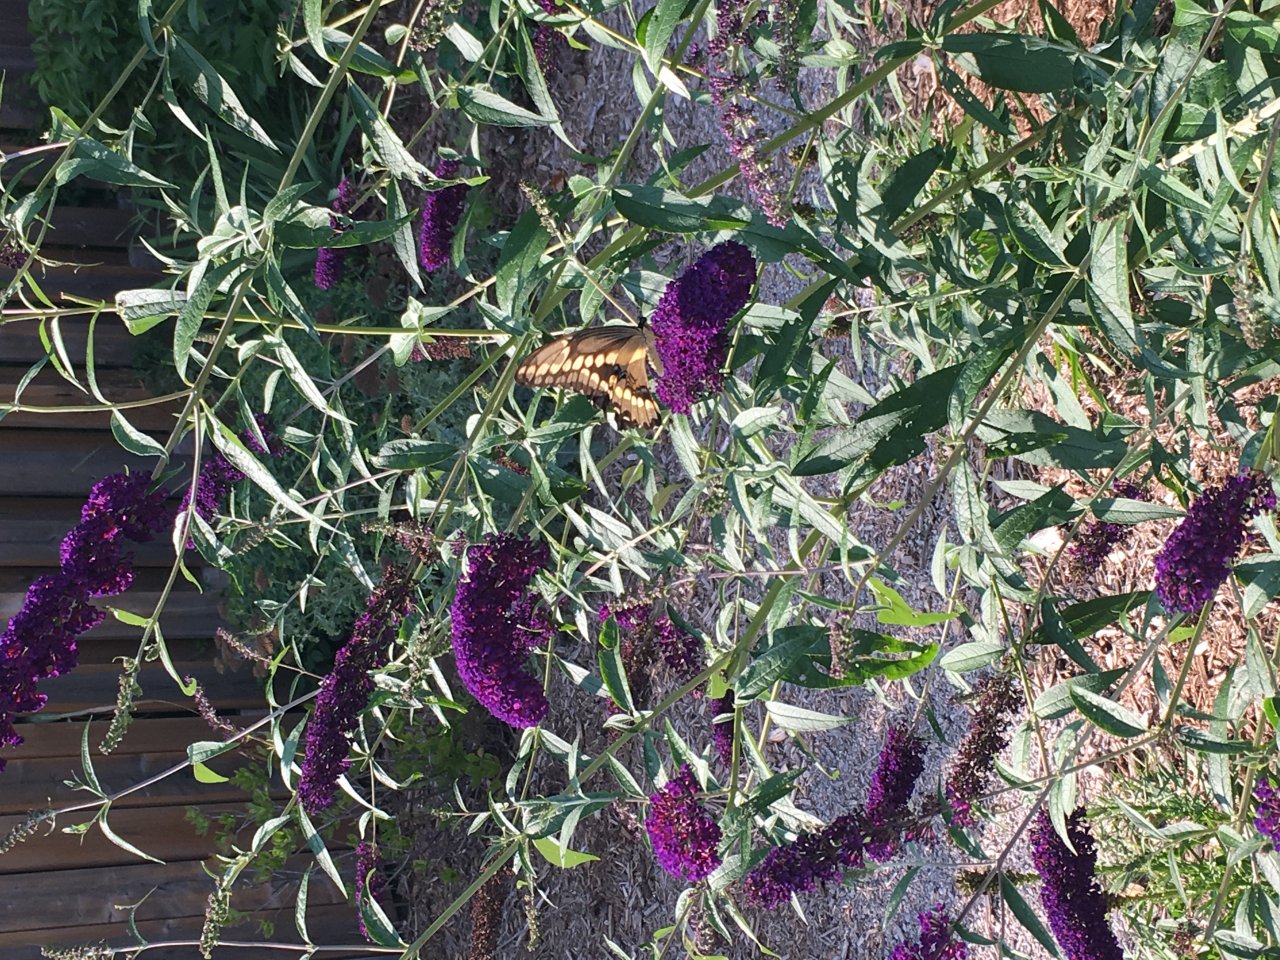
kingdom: Animalia
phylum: Arthropoda
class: Insecta
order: Lepidoptera
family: Papilionidae
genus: Papilio
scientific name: Papilio cresphontes
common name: Eastern Giant Swallowtail
